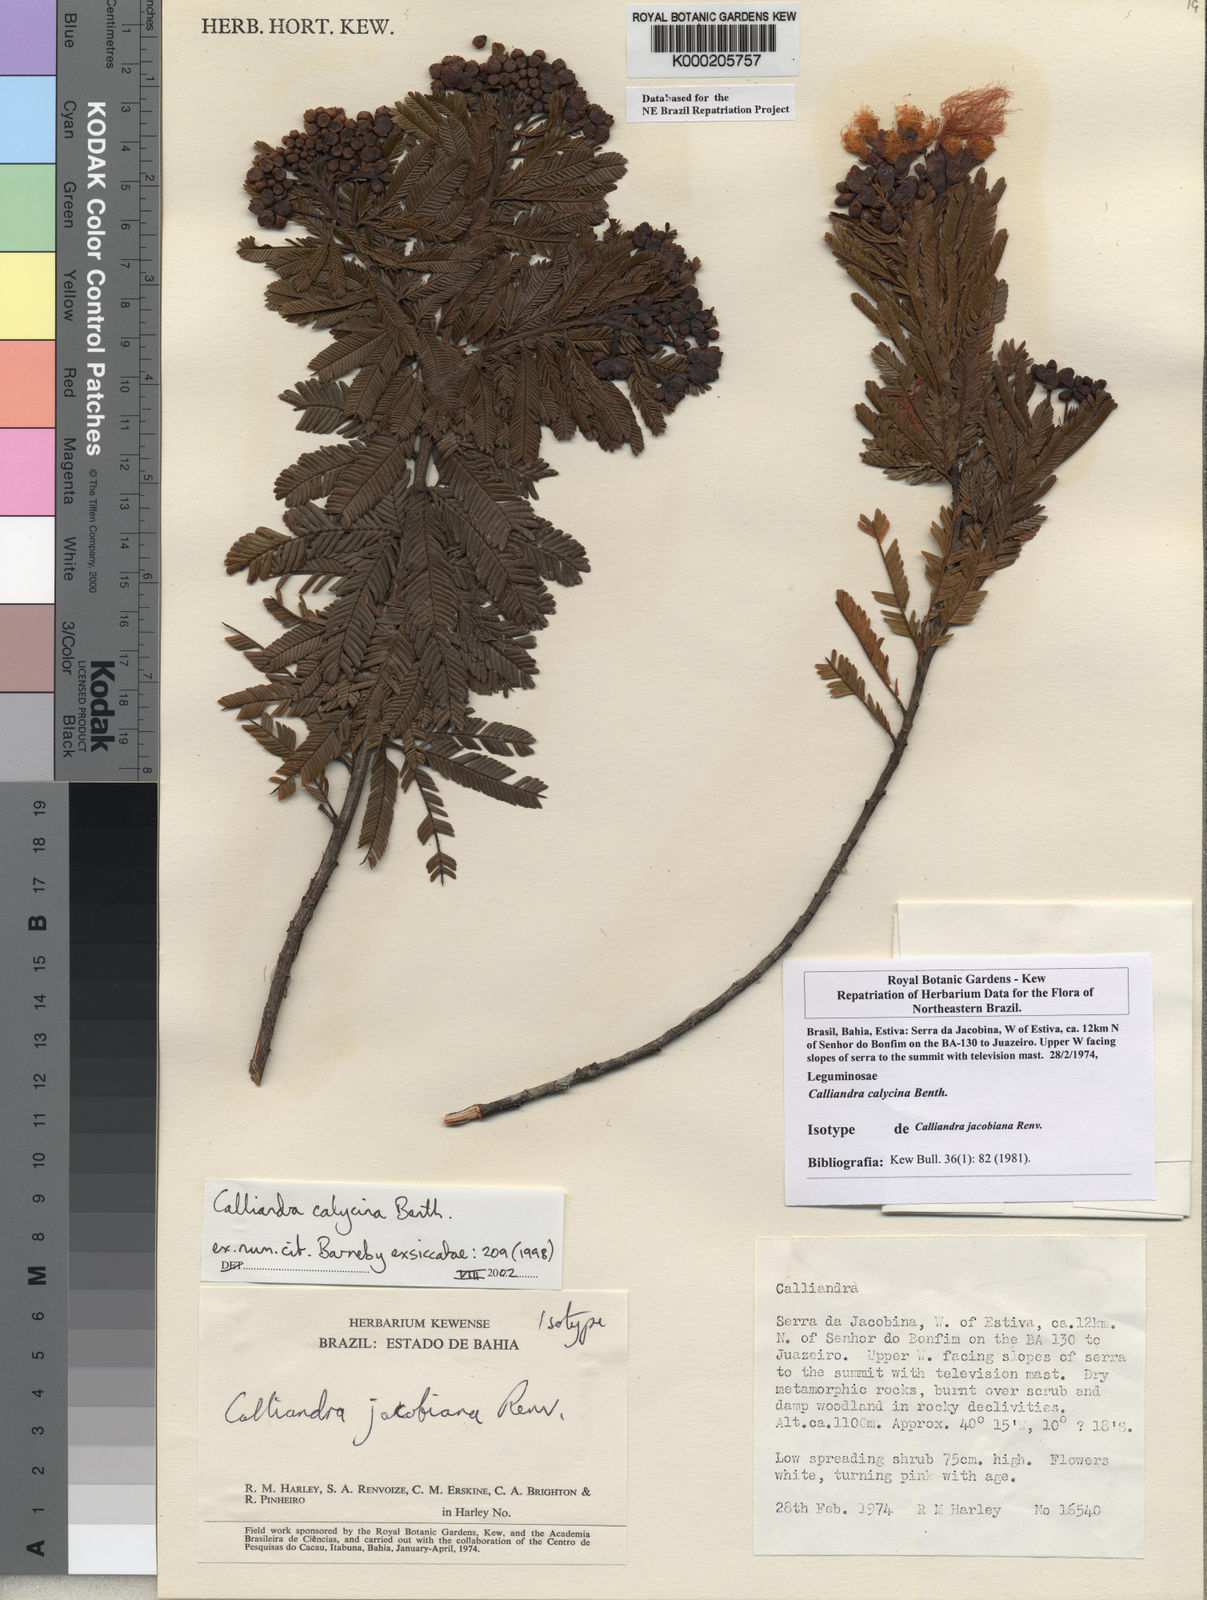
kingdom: Plantae
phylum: Tracheophyta
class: Magnoliopsida
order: Fabales
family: Fabaceae
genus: Calliandra
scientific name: Calliandra calycina
